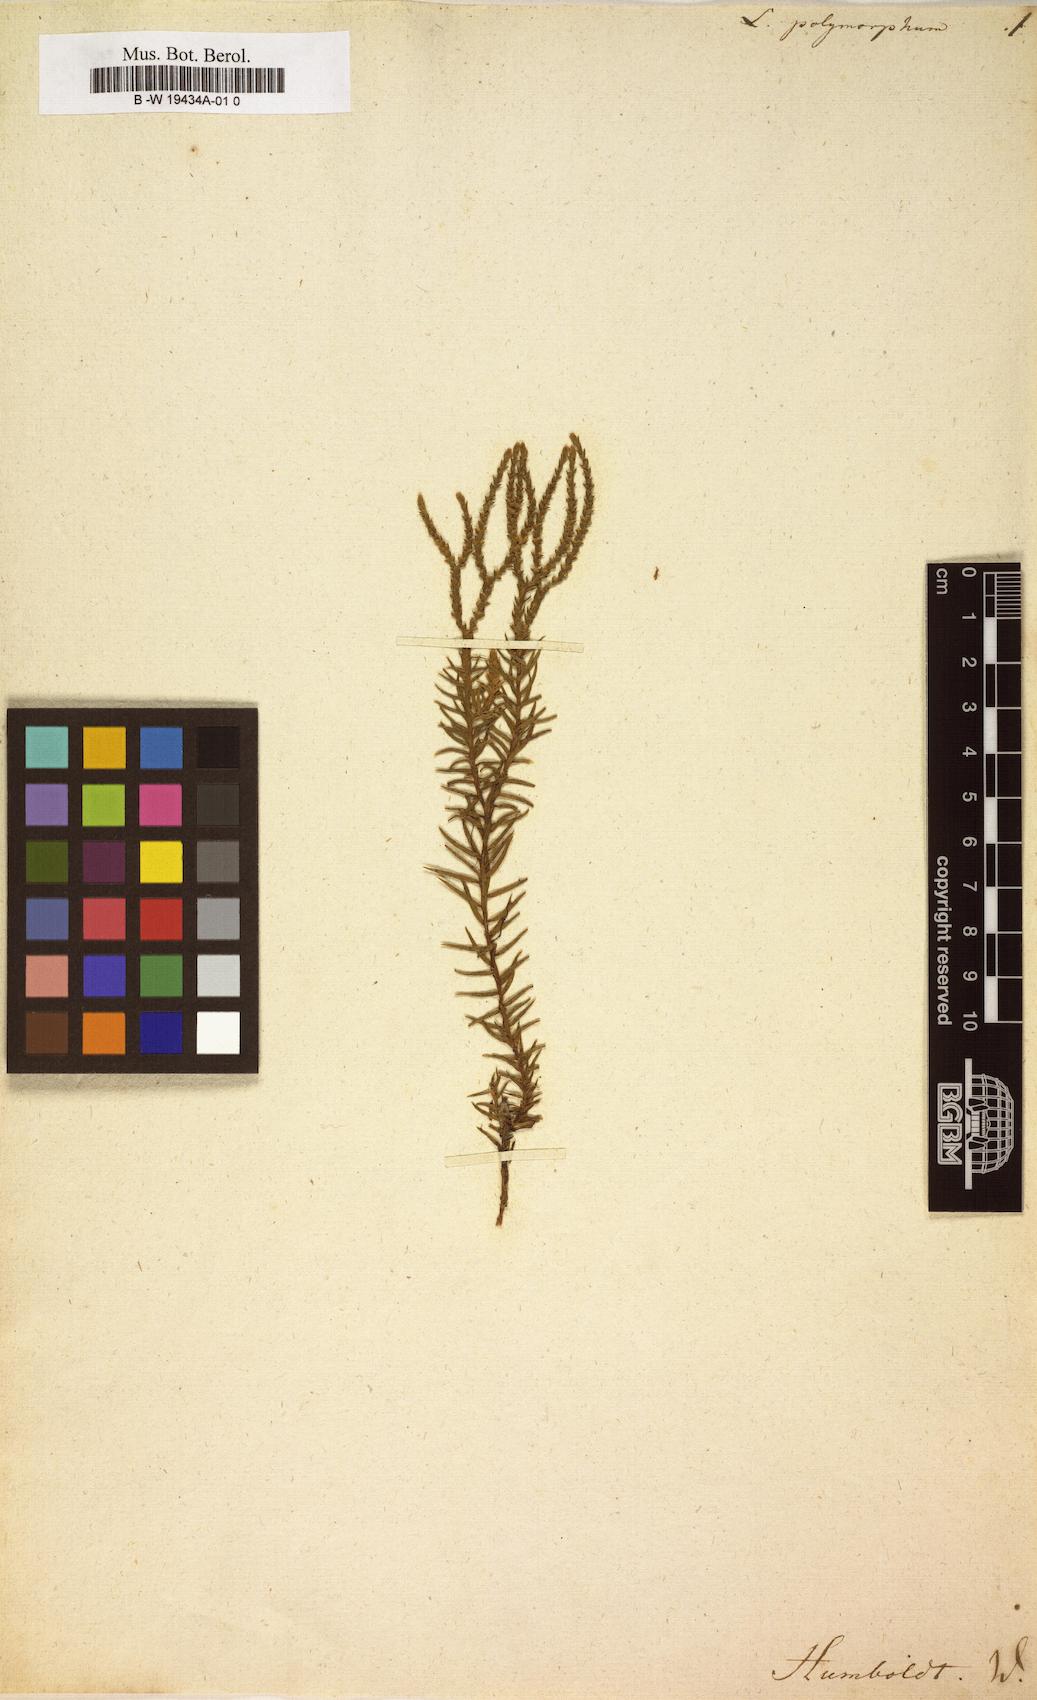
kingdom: Plantae
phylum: Tracheophyta
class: Lycopodiopsida
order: Lycopodiales
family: Lycopodiaceae
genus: Phlegmariurus
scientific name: Phlegmariurus subulatus
